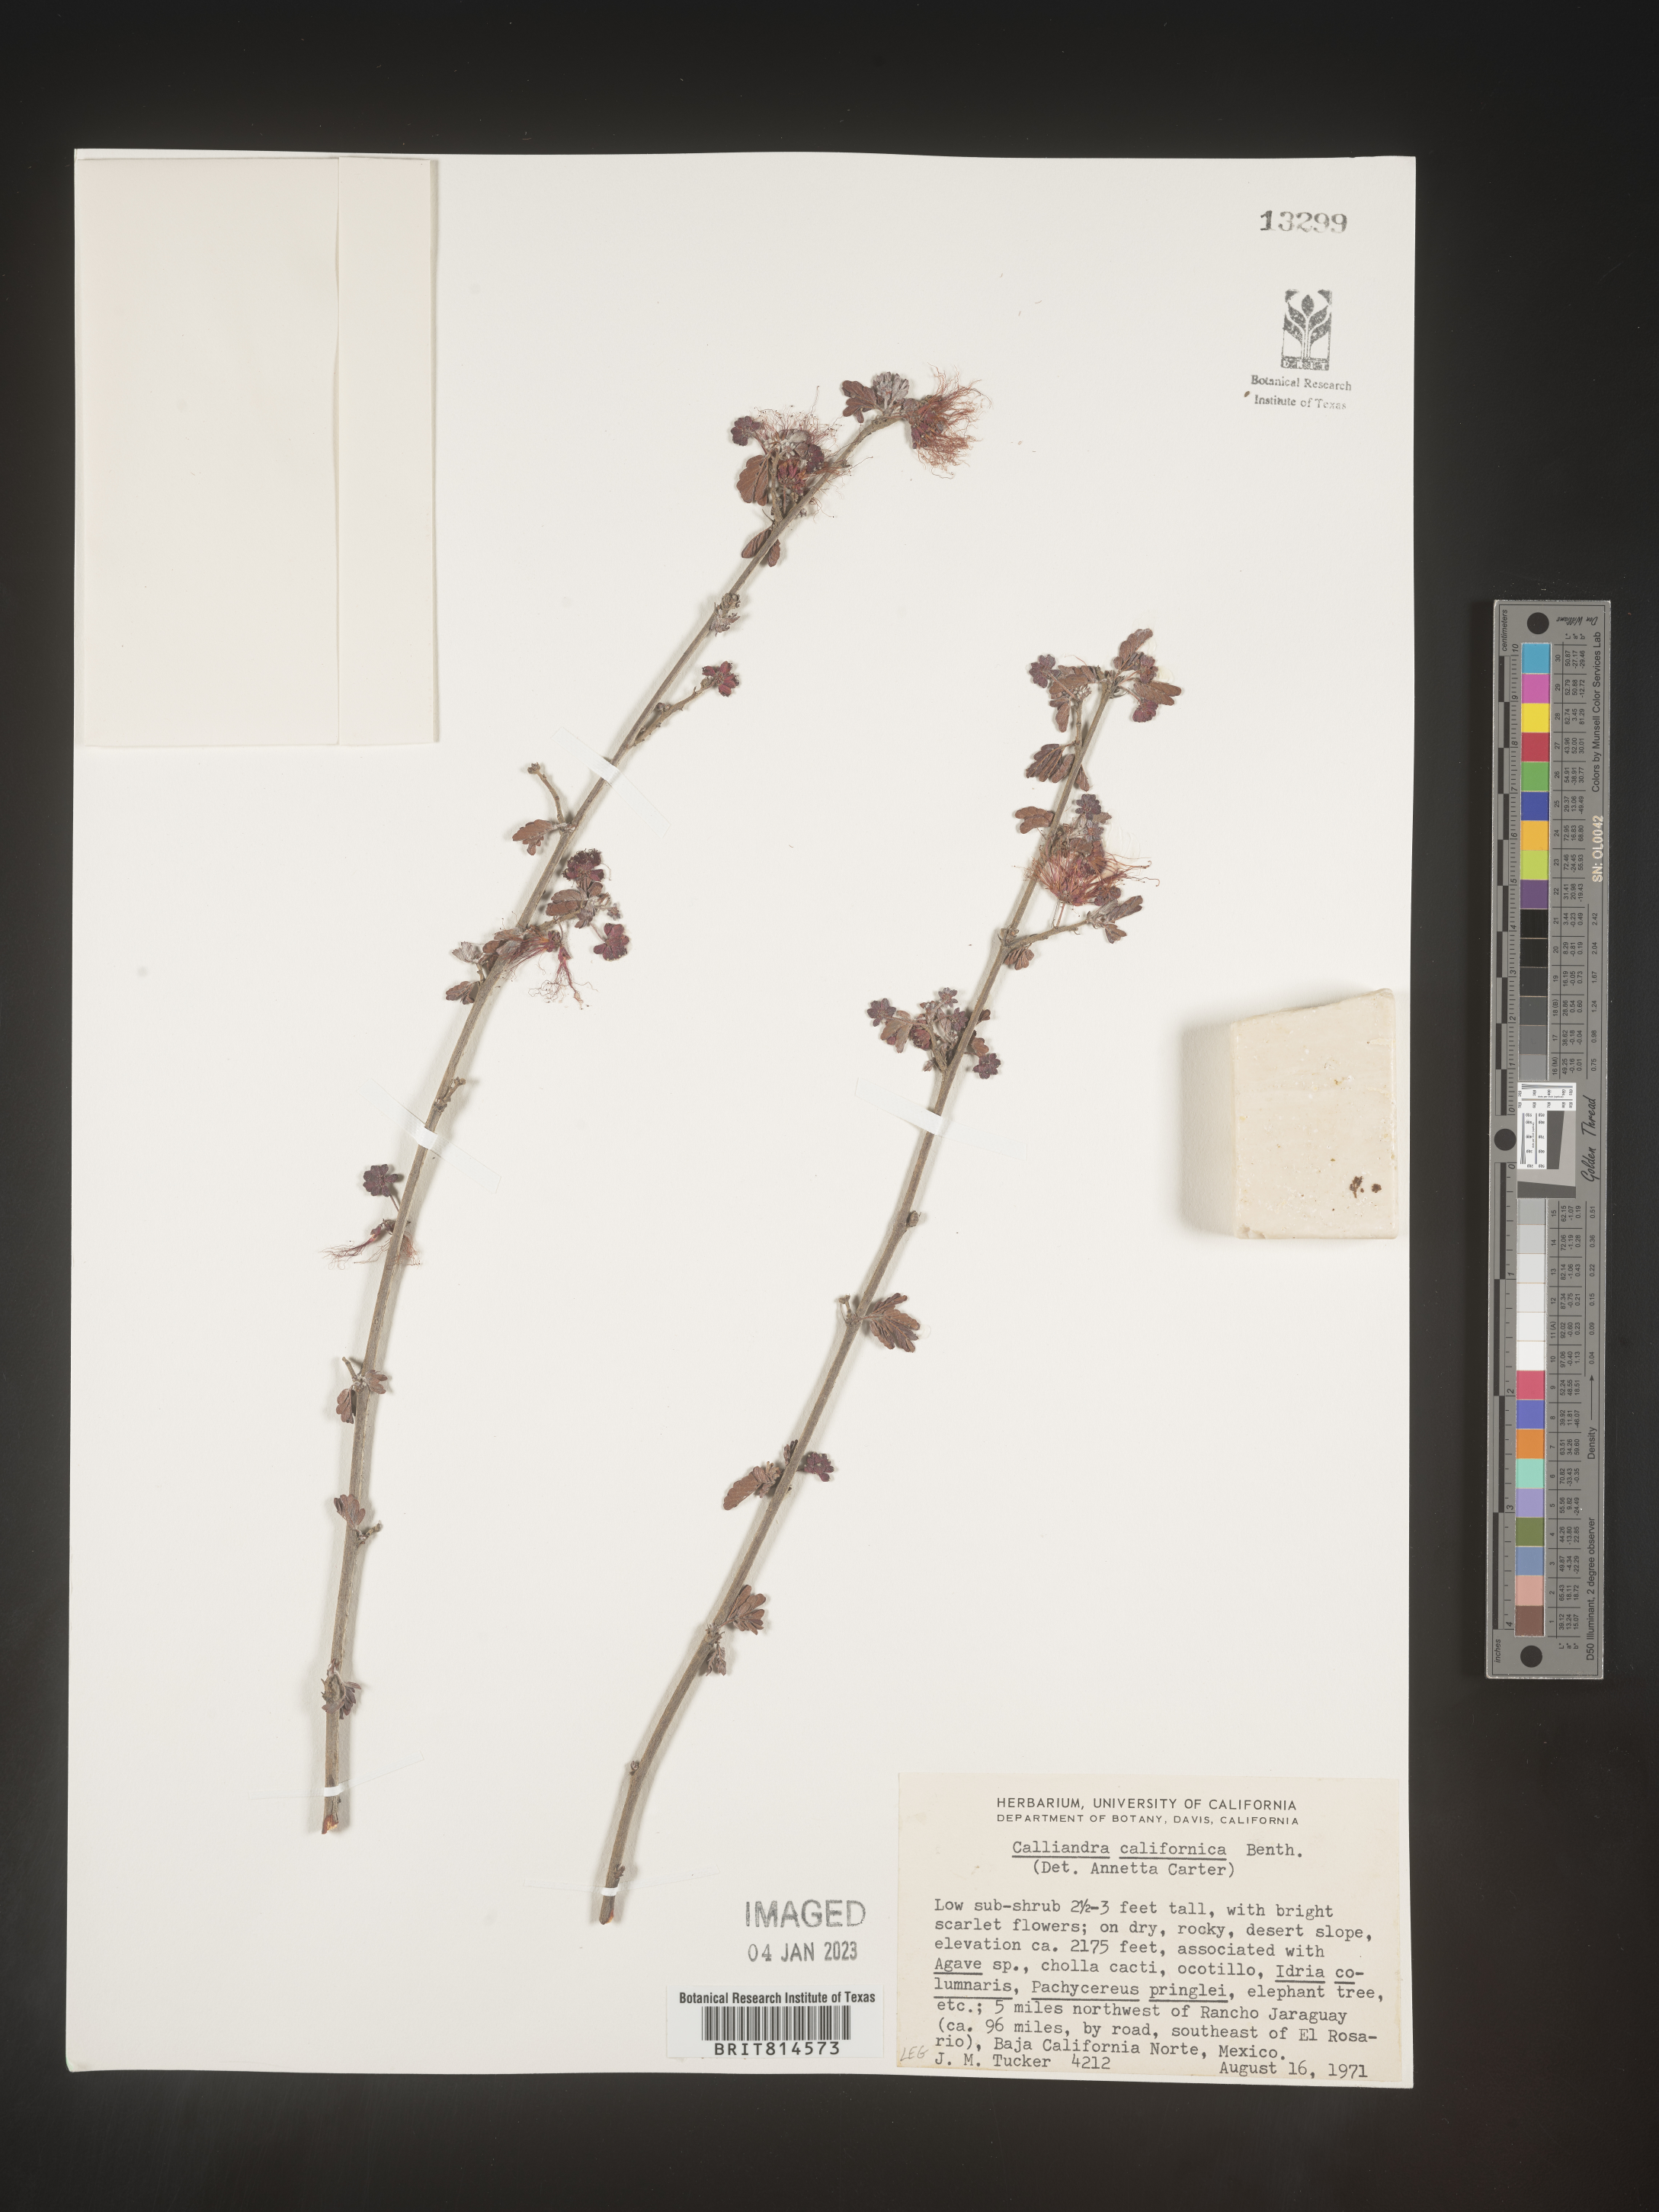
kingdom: Plantae
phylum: Tracheophyta
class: Magnoliopsida
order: Fabales
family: Fabaceae
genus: Calliandra
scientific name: Calliandra
